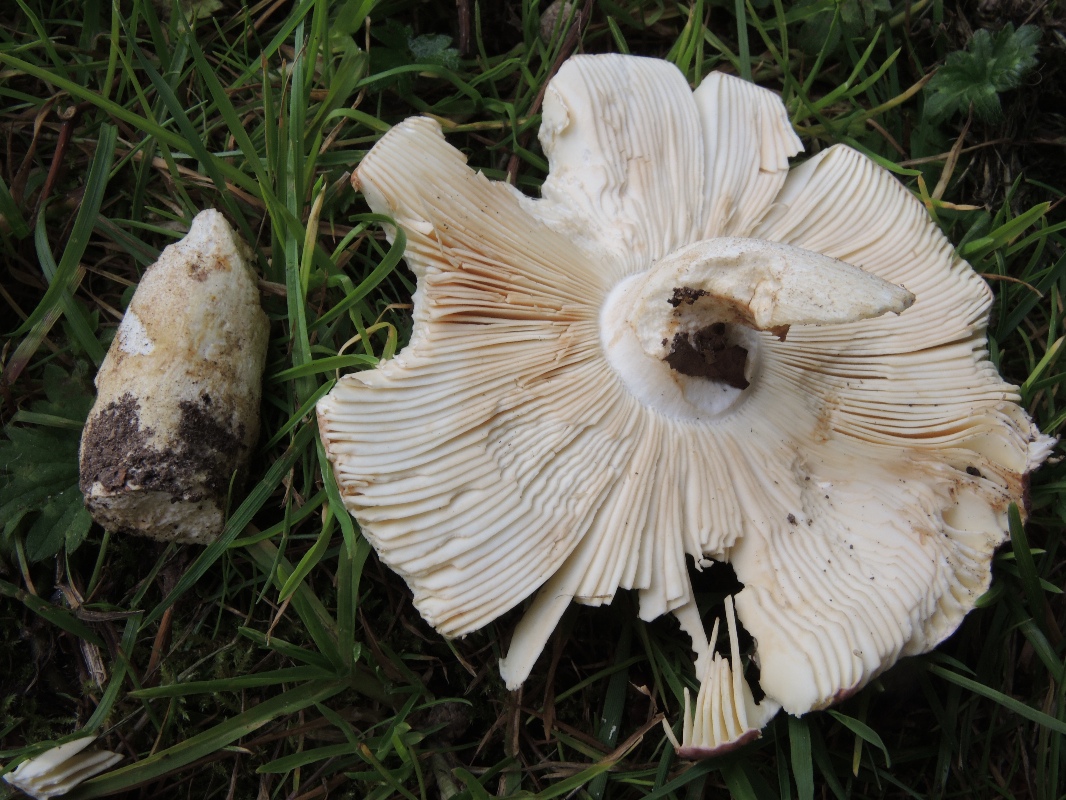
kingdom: Fungi
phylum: Basidiomycota
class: Agaricomycetes
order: Russulales
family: Russulaceae
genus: Russula
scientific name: Russula faginea
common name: bøge-skørhat
